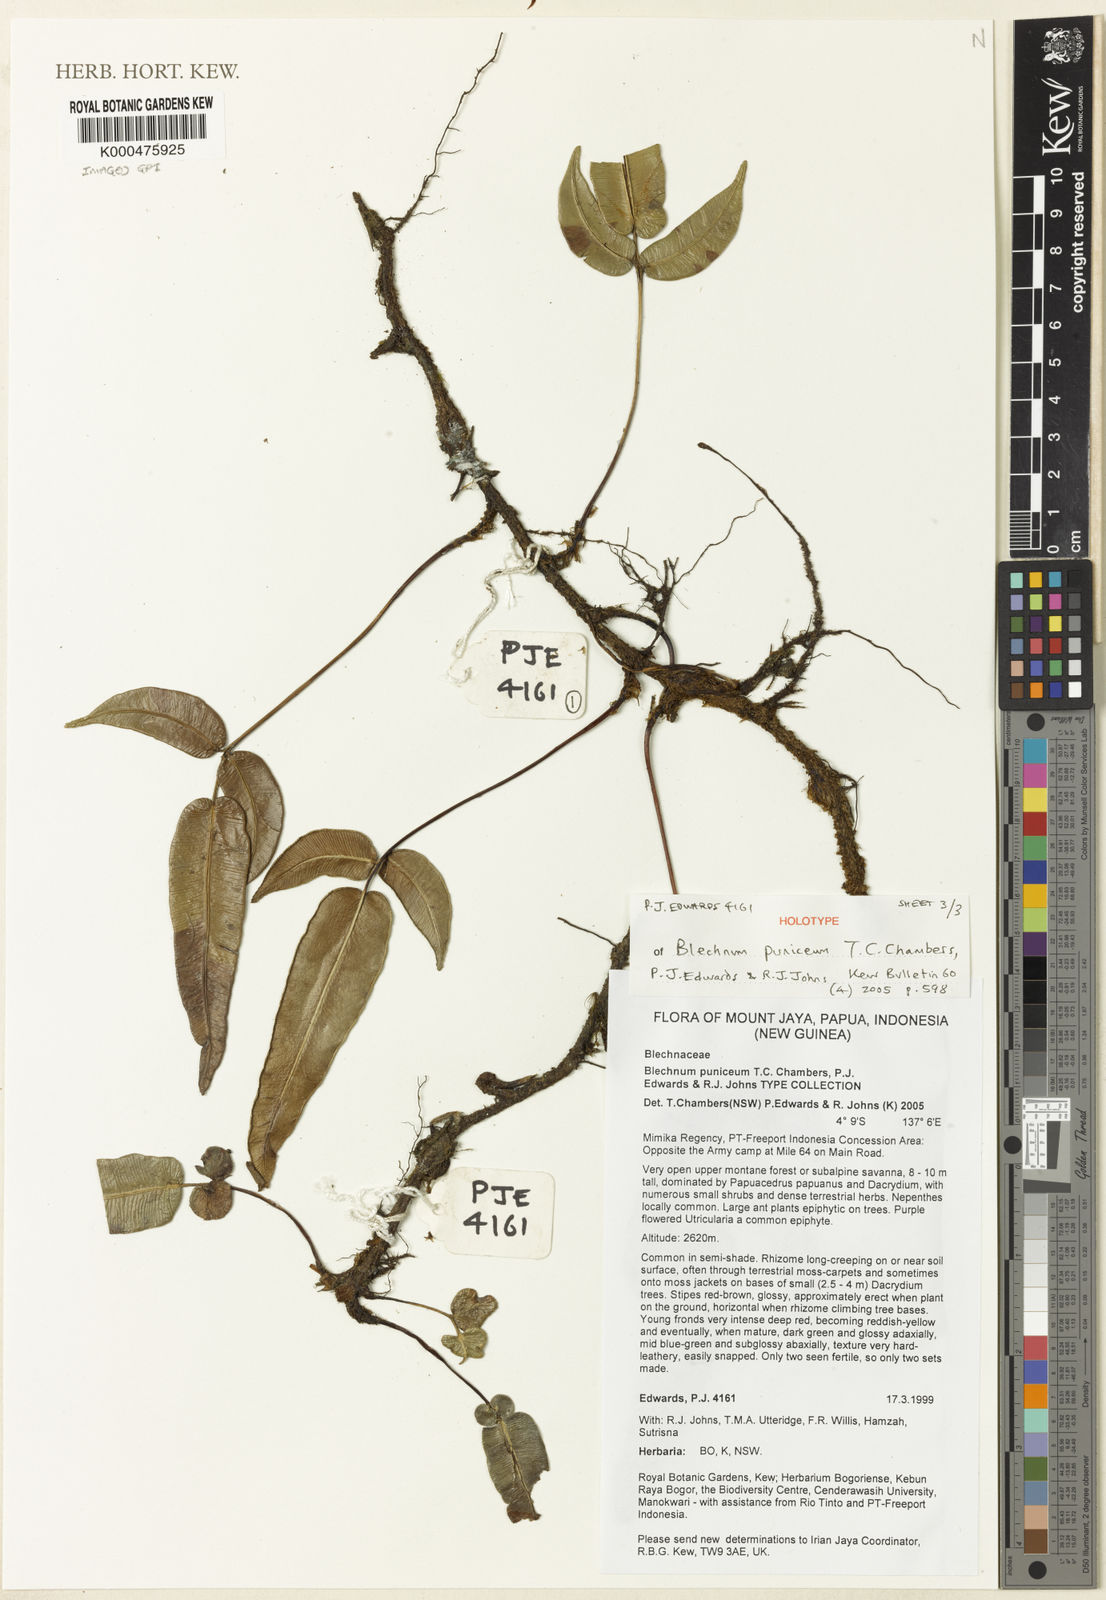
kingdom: Plantae
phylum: Tracheophyta
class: Polypodiopsida
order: Polypodiales
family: Blechnaceae
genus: Parablechnum
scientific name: Parablechnum puniceum
